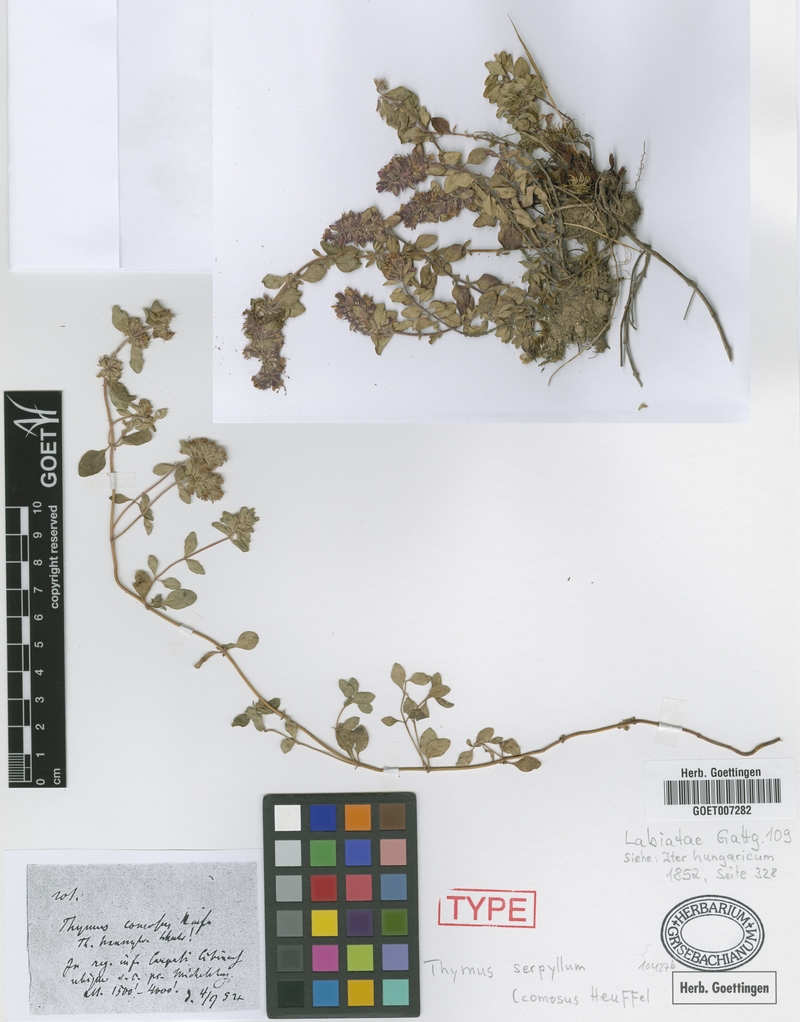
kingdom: Plantae
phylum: Tracheophyta
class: Magnoliopsida
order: Lamiales
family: Lamiaceae
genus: Thymus
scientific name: Thymus comosus
